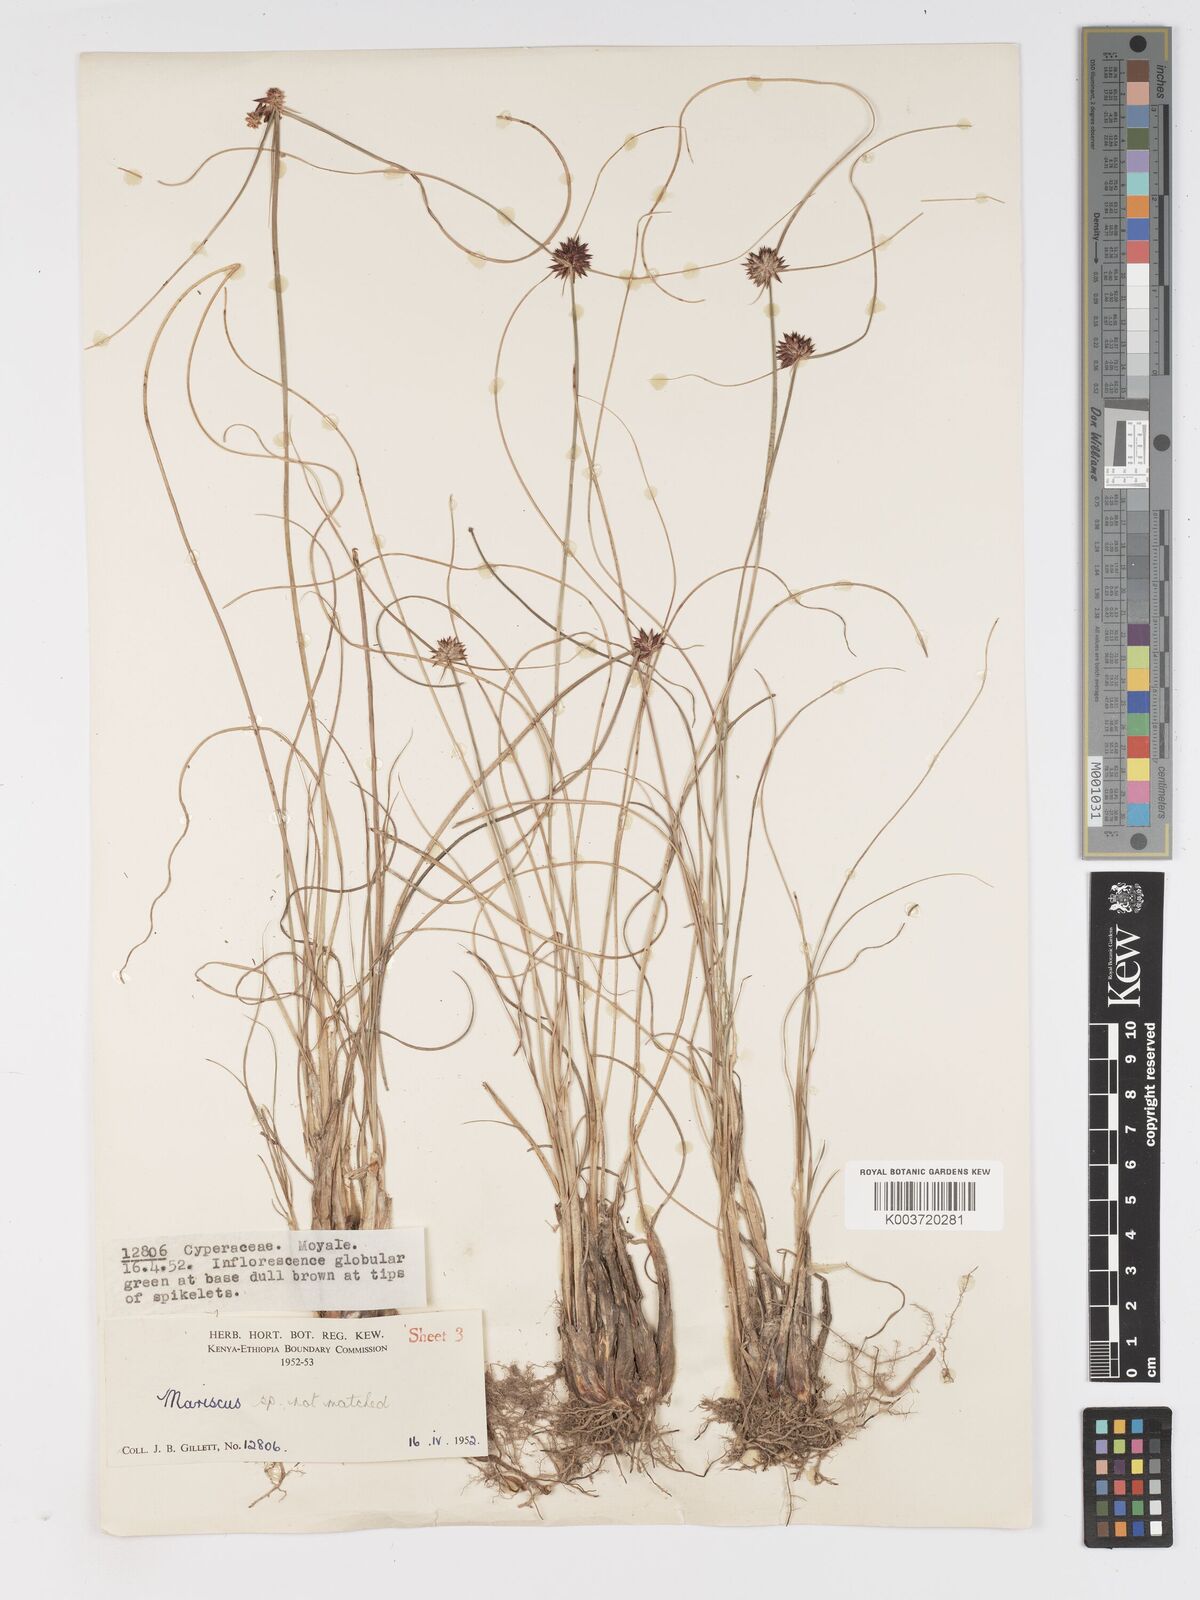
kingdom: Plantae
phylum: Tracheophyta
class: Liliopsida
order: Poales
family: Cyperaceae
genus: Cyperus
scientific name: Cyperus
